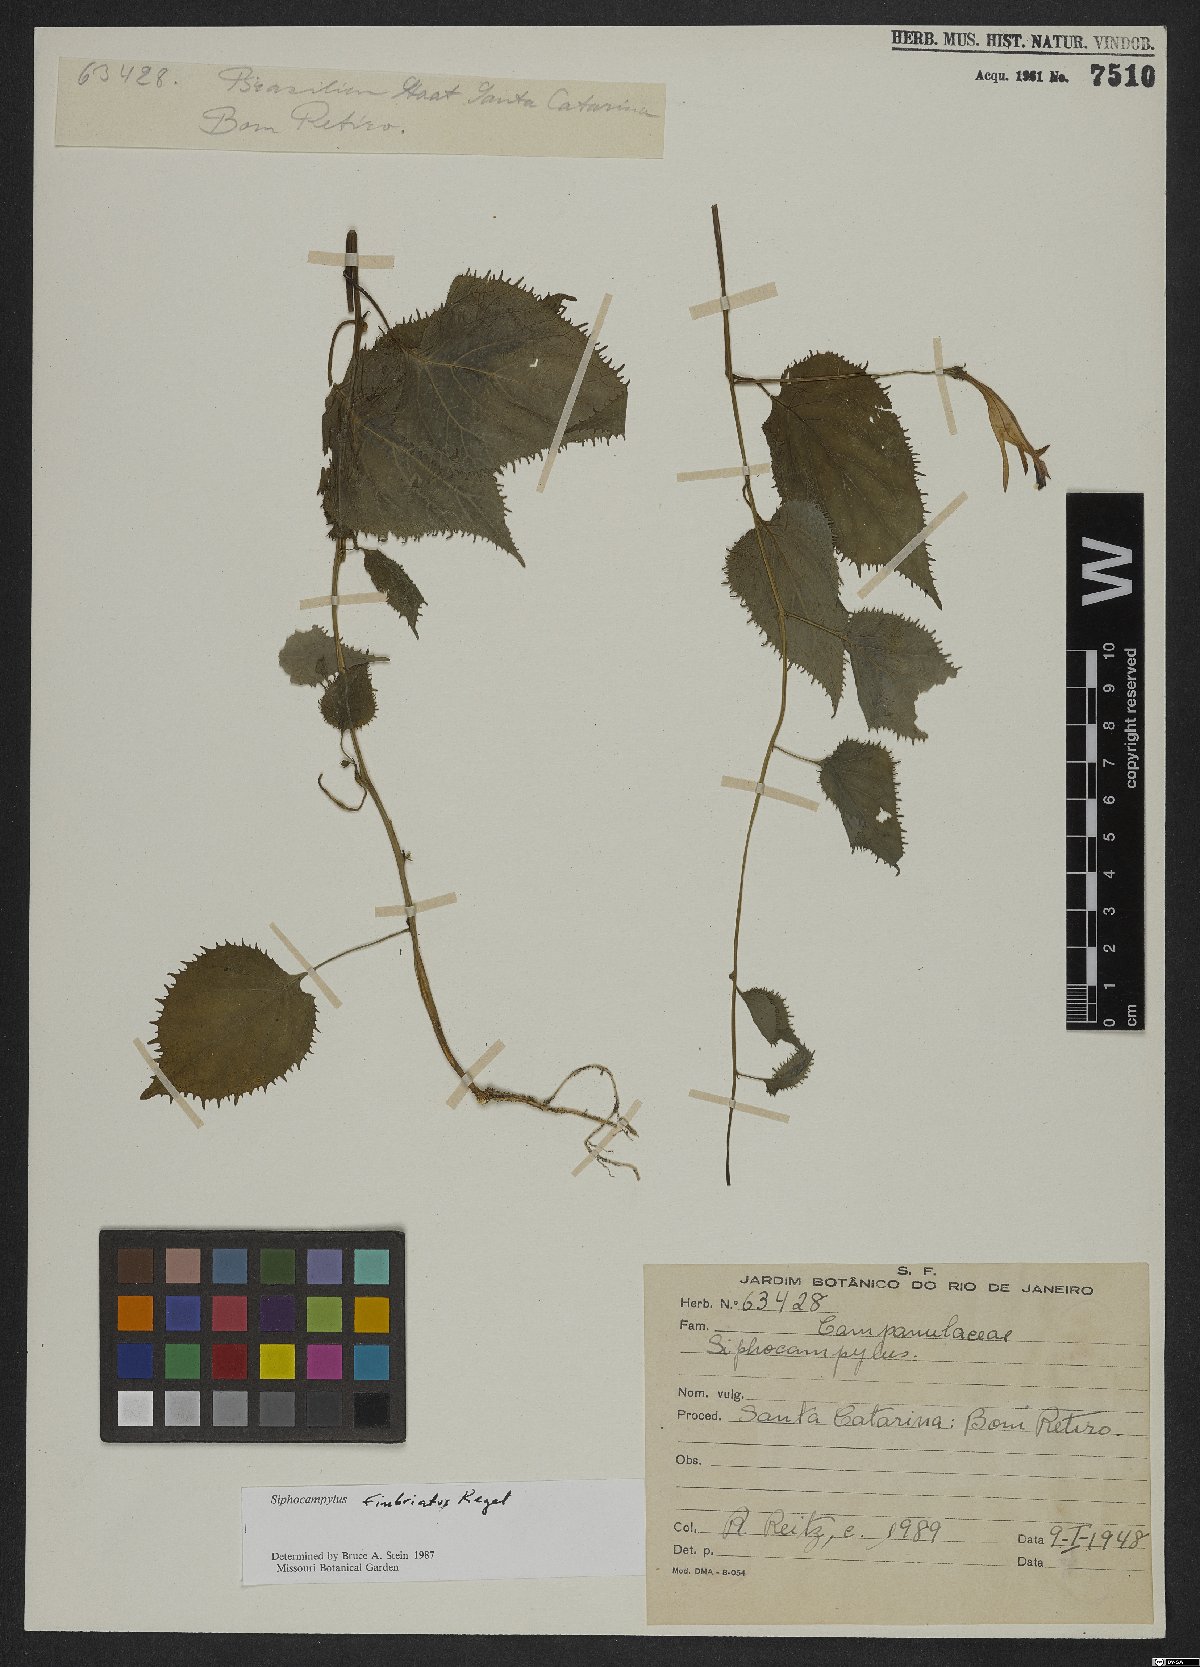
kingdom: Plantae
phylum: Tracheophyta
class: Magnoliopsida
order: Asterales
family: Campanulaceae
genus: Siphocampylus
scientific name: Siphocampylus fimbriatus
